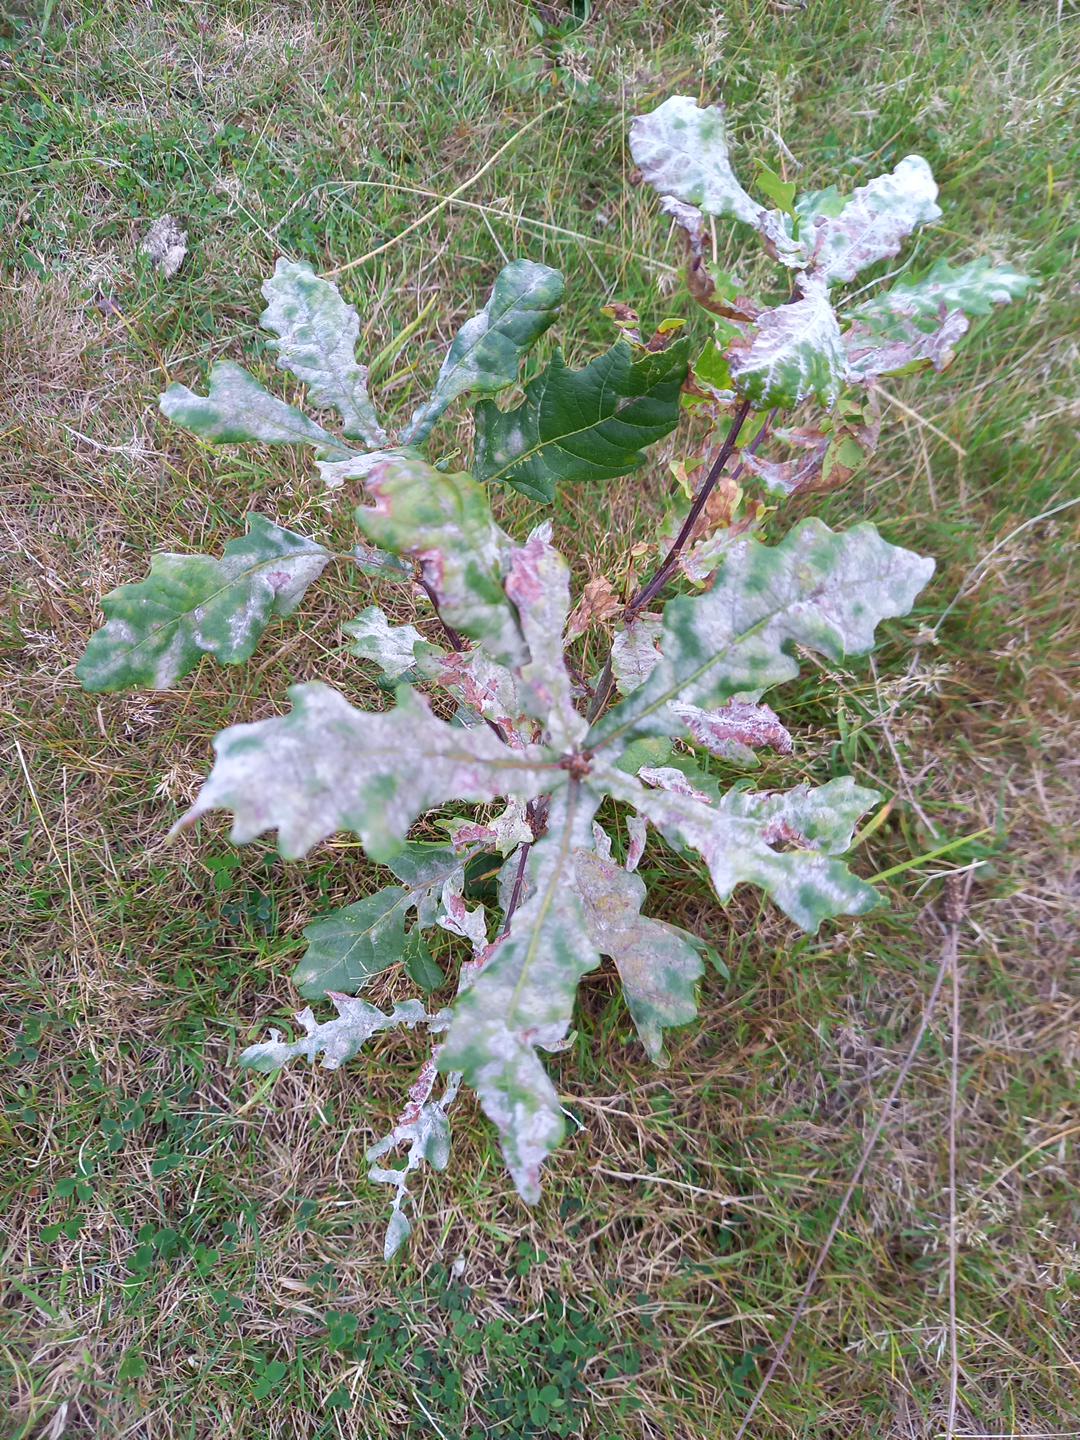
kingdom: Fungi
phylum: Ascomycota
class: Leotiomycetes
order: Helotiales
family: Erysiphaceae
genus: Erysiphe
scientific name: Erysiphe alphitoides
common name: ege-meldug
